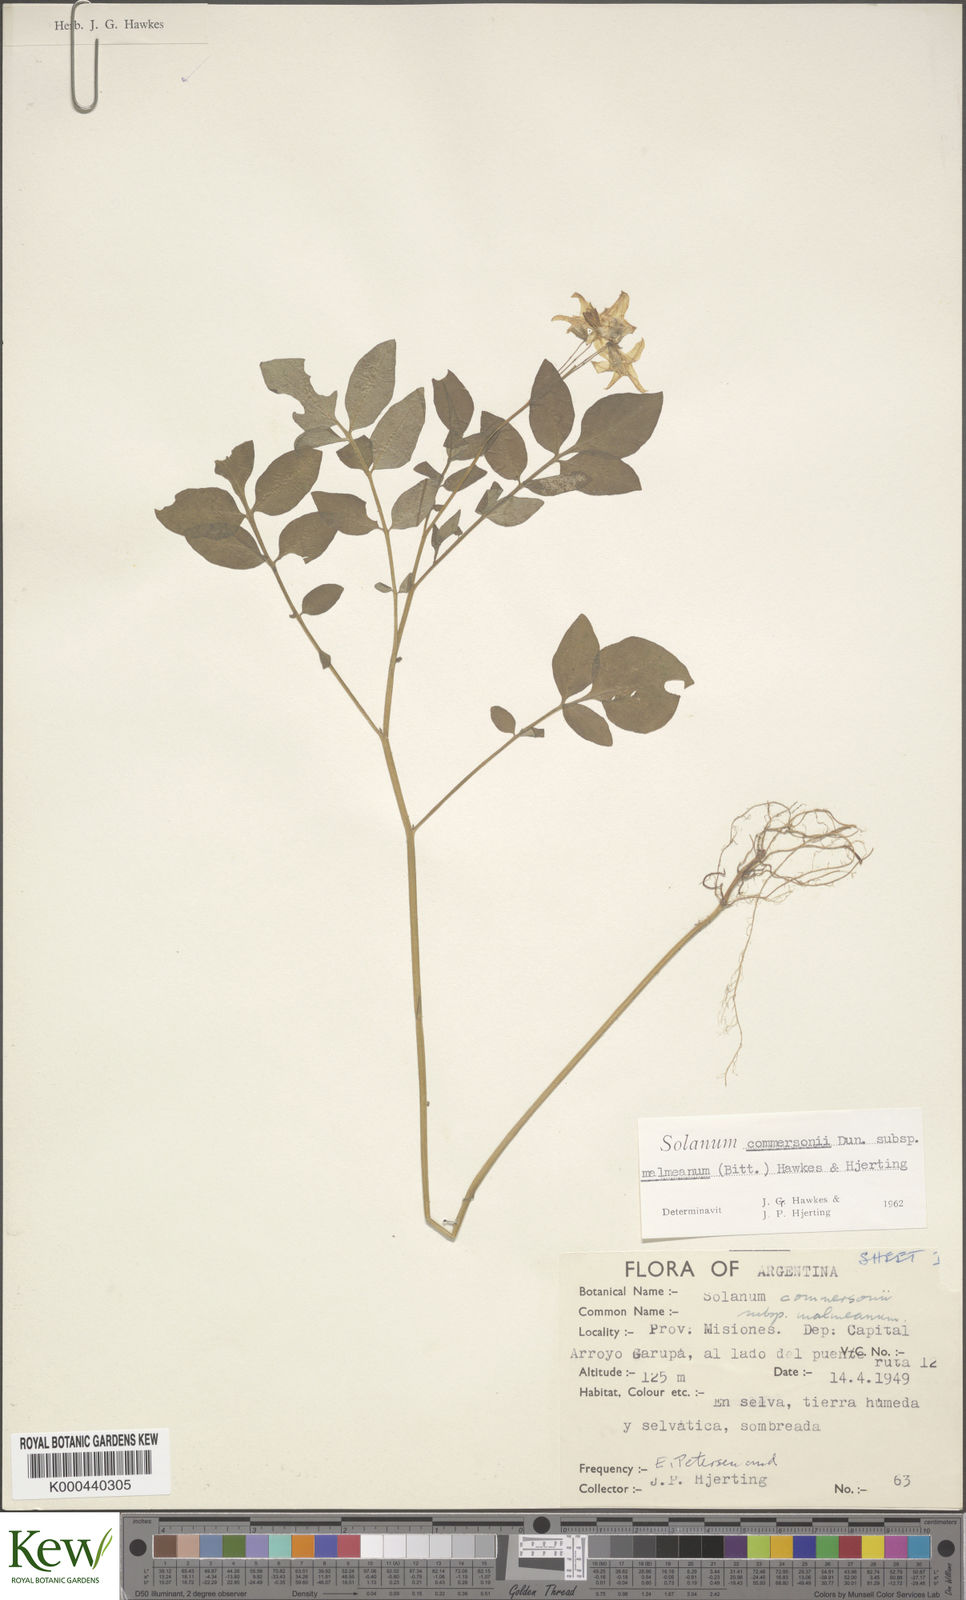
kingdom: Plantae
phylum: Tracheophyta
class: Magnoliopsida
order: Solanales
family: Solanaceae
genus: Solanum
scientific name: Solanum malmeanum
